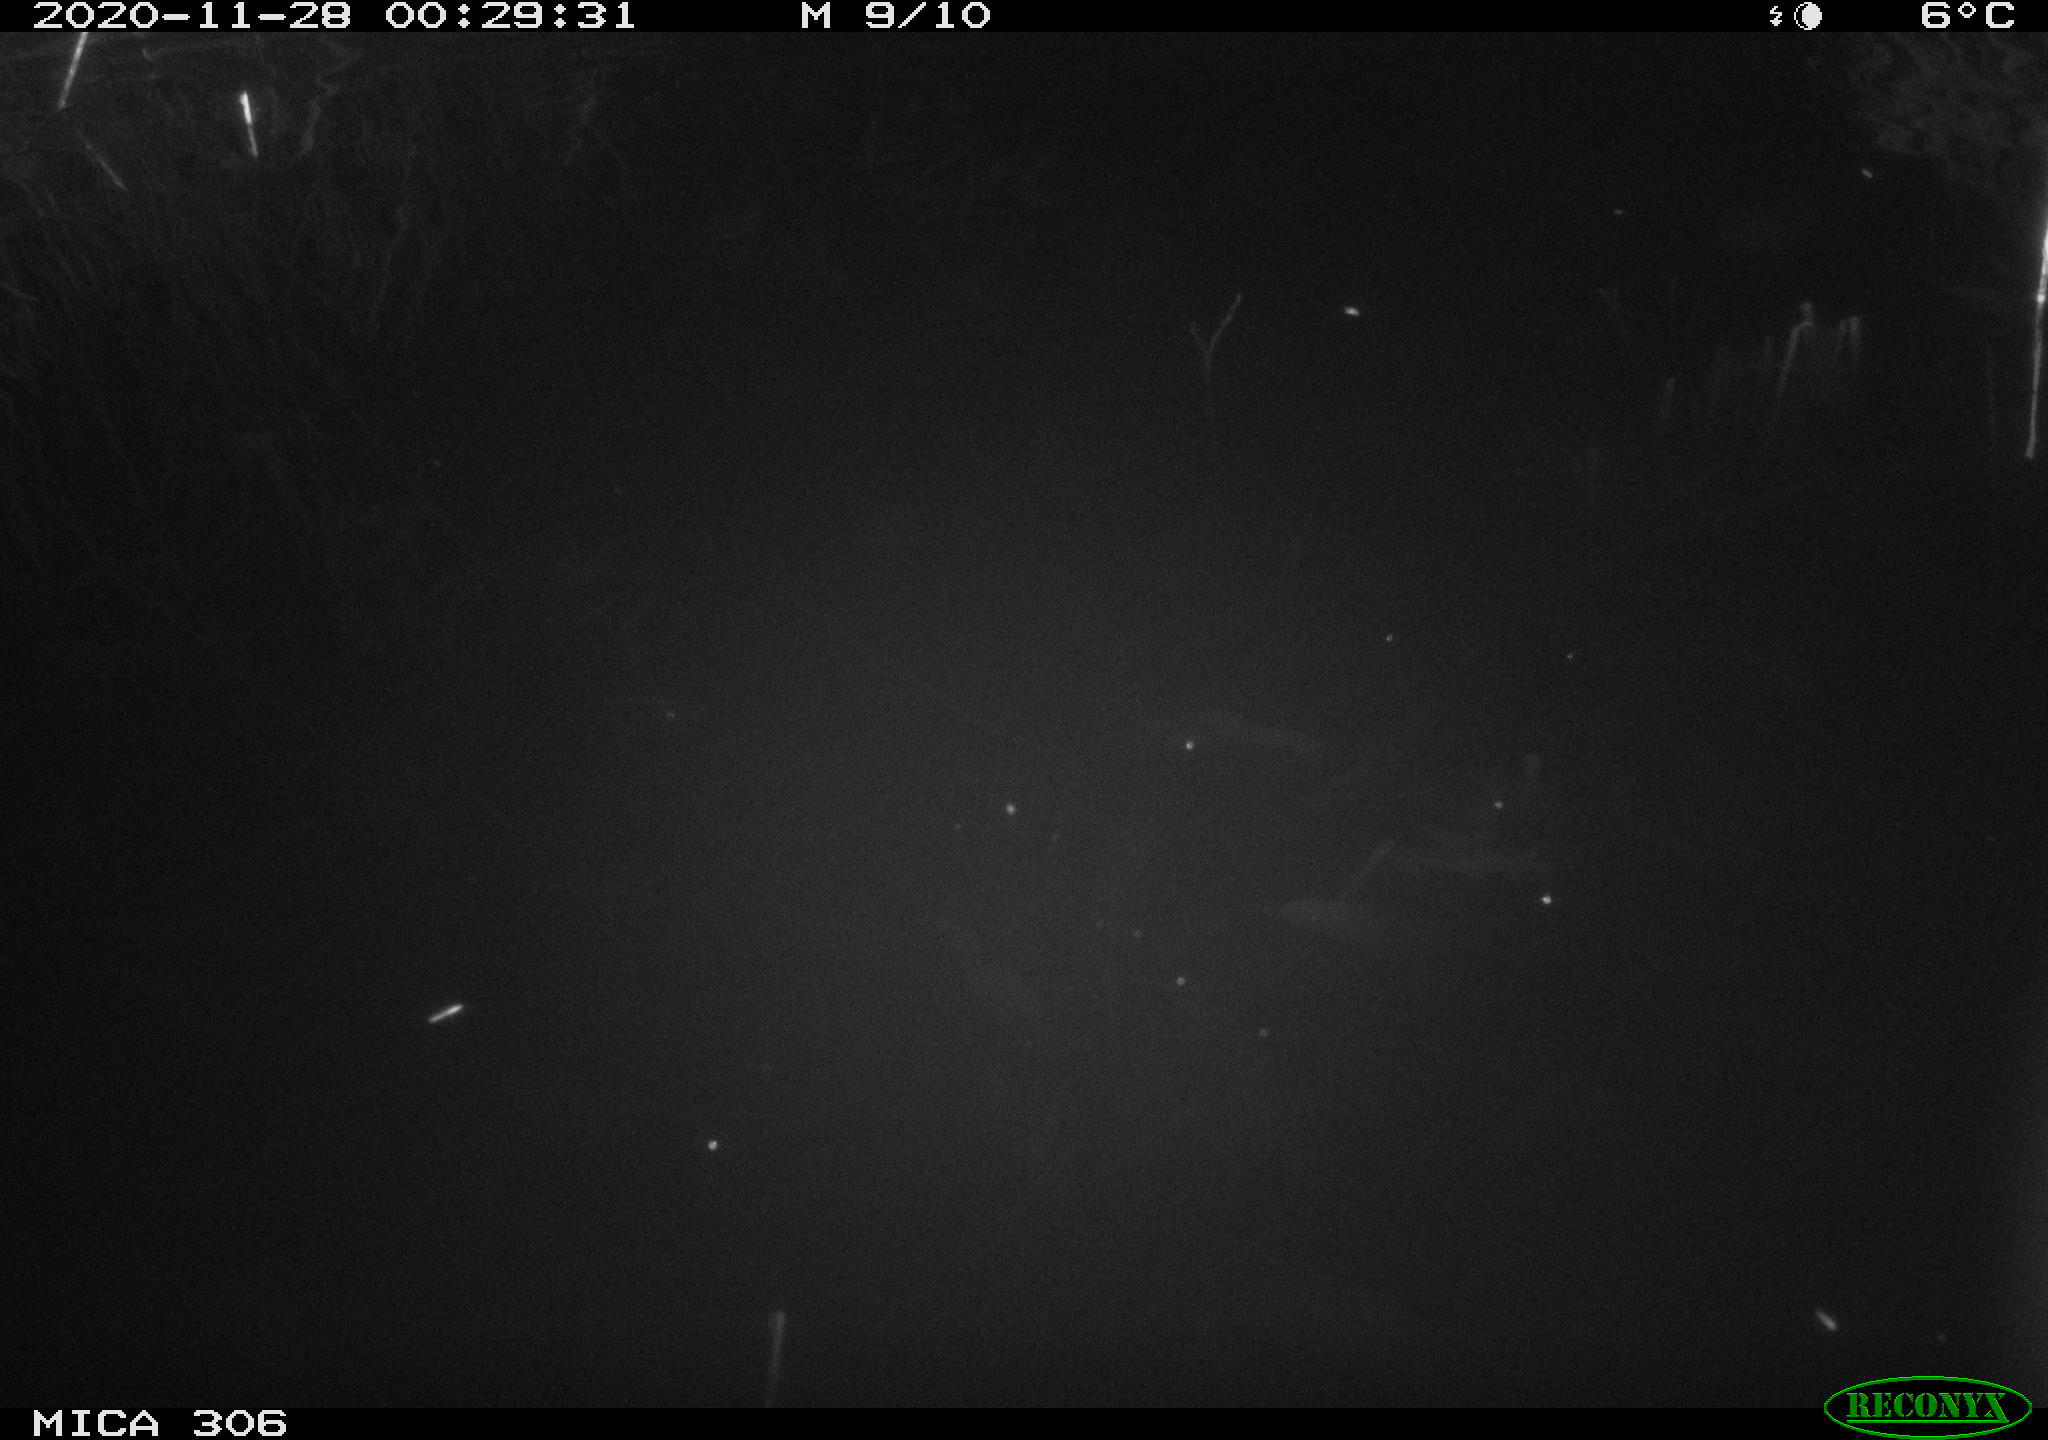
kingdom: Animalia
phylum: Chordata
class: Mammalia
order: Rodentia
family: Muridae
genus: Rattus
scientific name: Rattus norvegicus
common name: Brown rat
